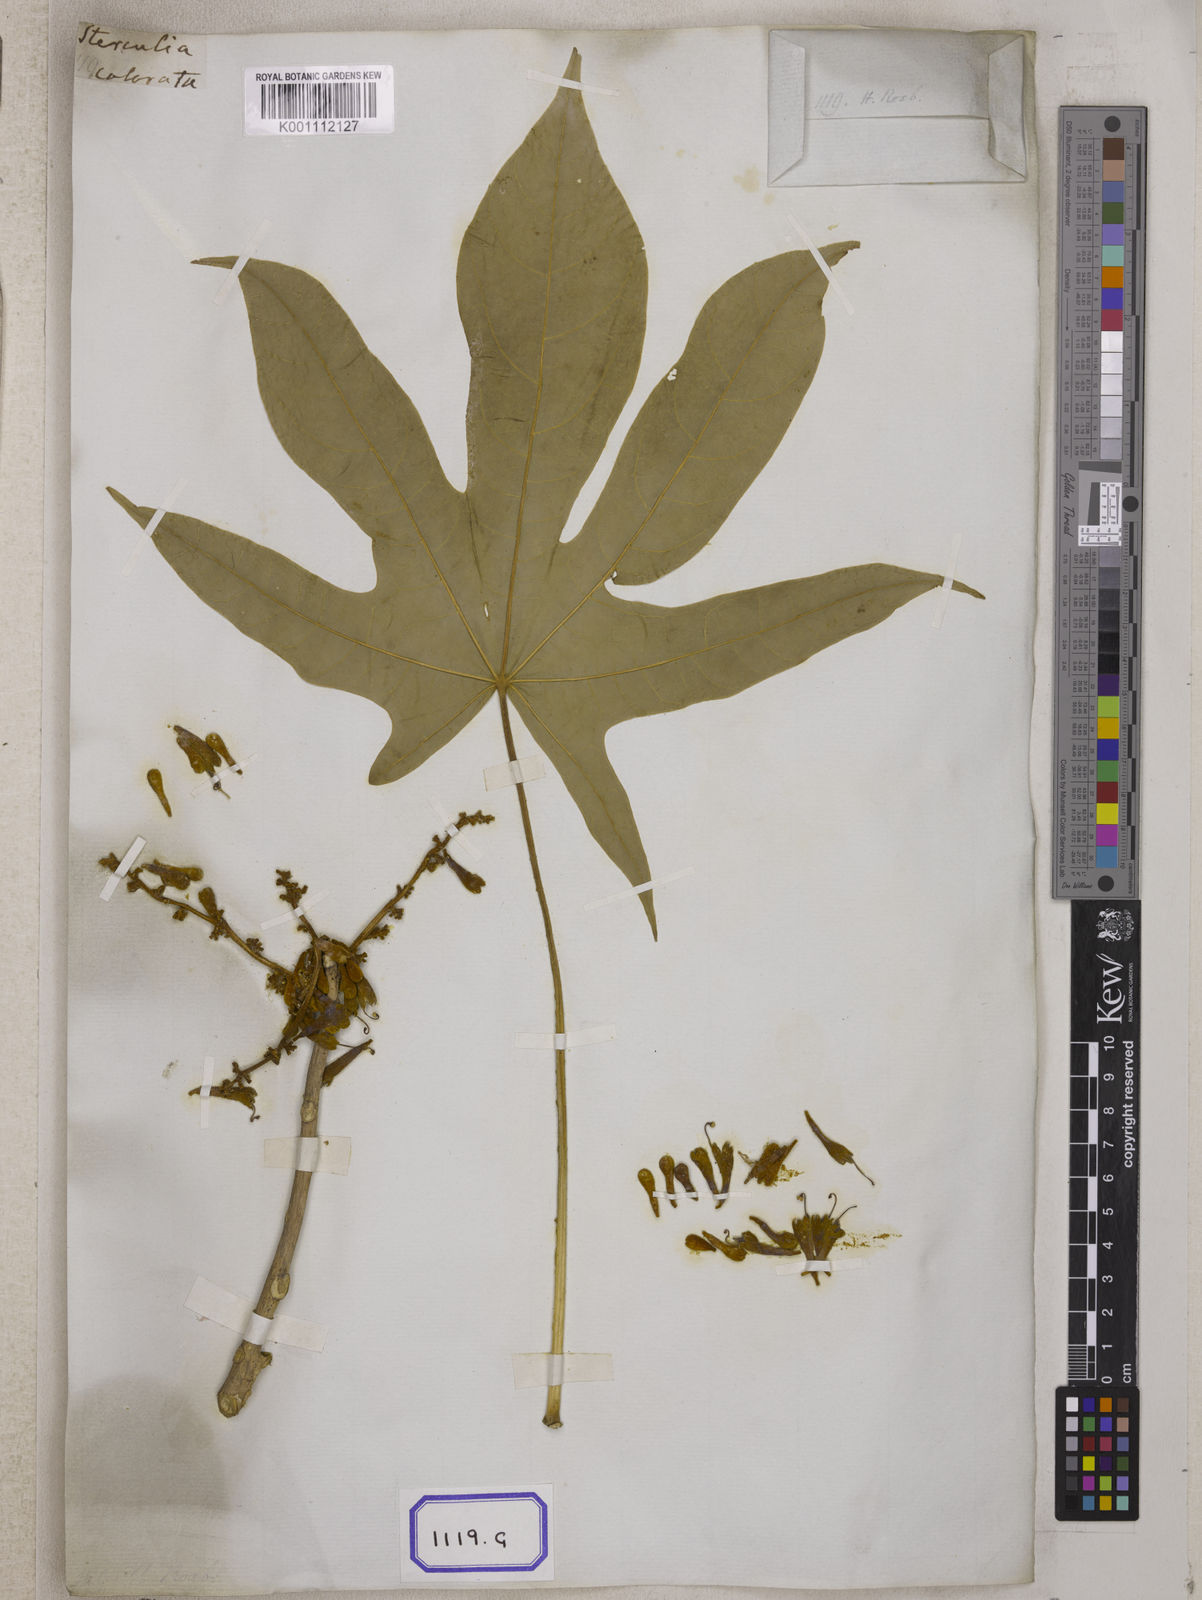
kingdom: Plantae
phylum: Tracheophyta
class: Magnoliopsida
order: Malvales
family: Malvaceae
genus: Firmiana
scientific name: Firmiana colorata
